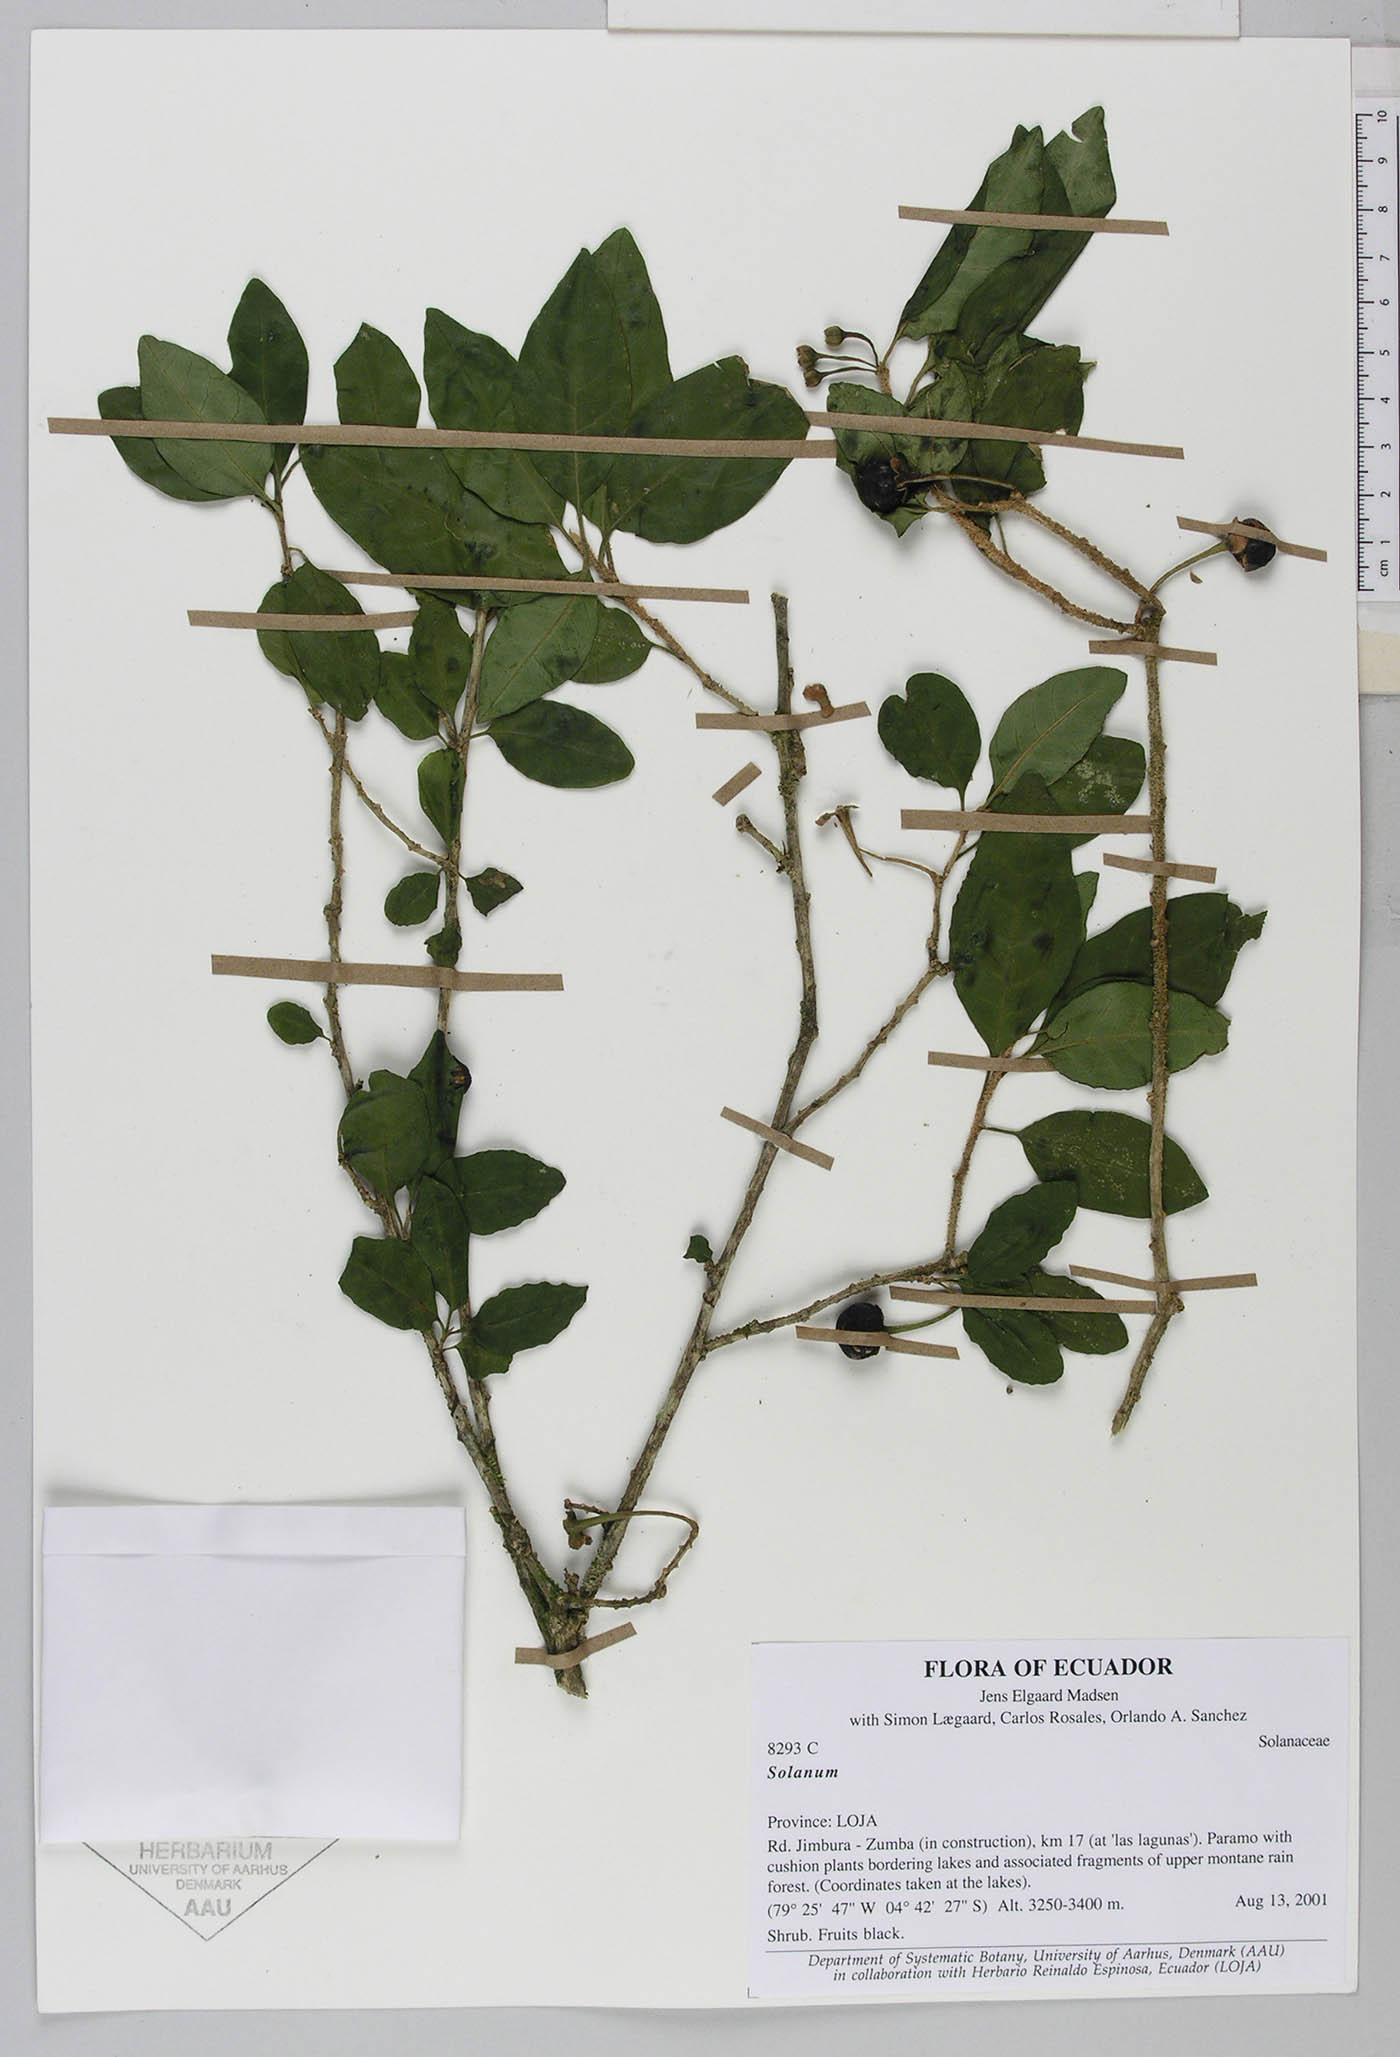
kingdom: Plantae
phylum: Tracheophyta
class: Magnoliopsida
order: Solanales
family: Solanaceae
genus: Saracha
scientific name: Saracha punctata
